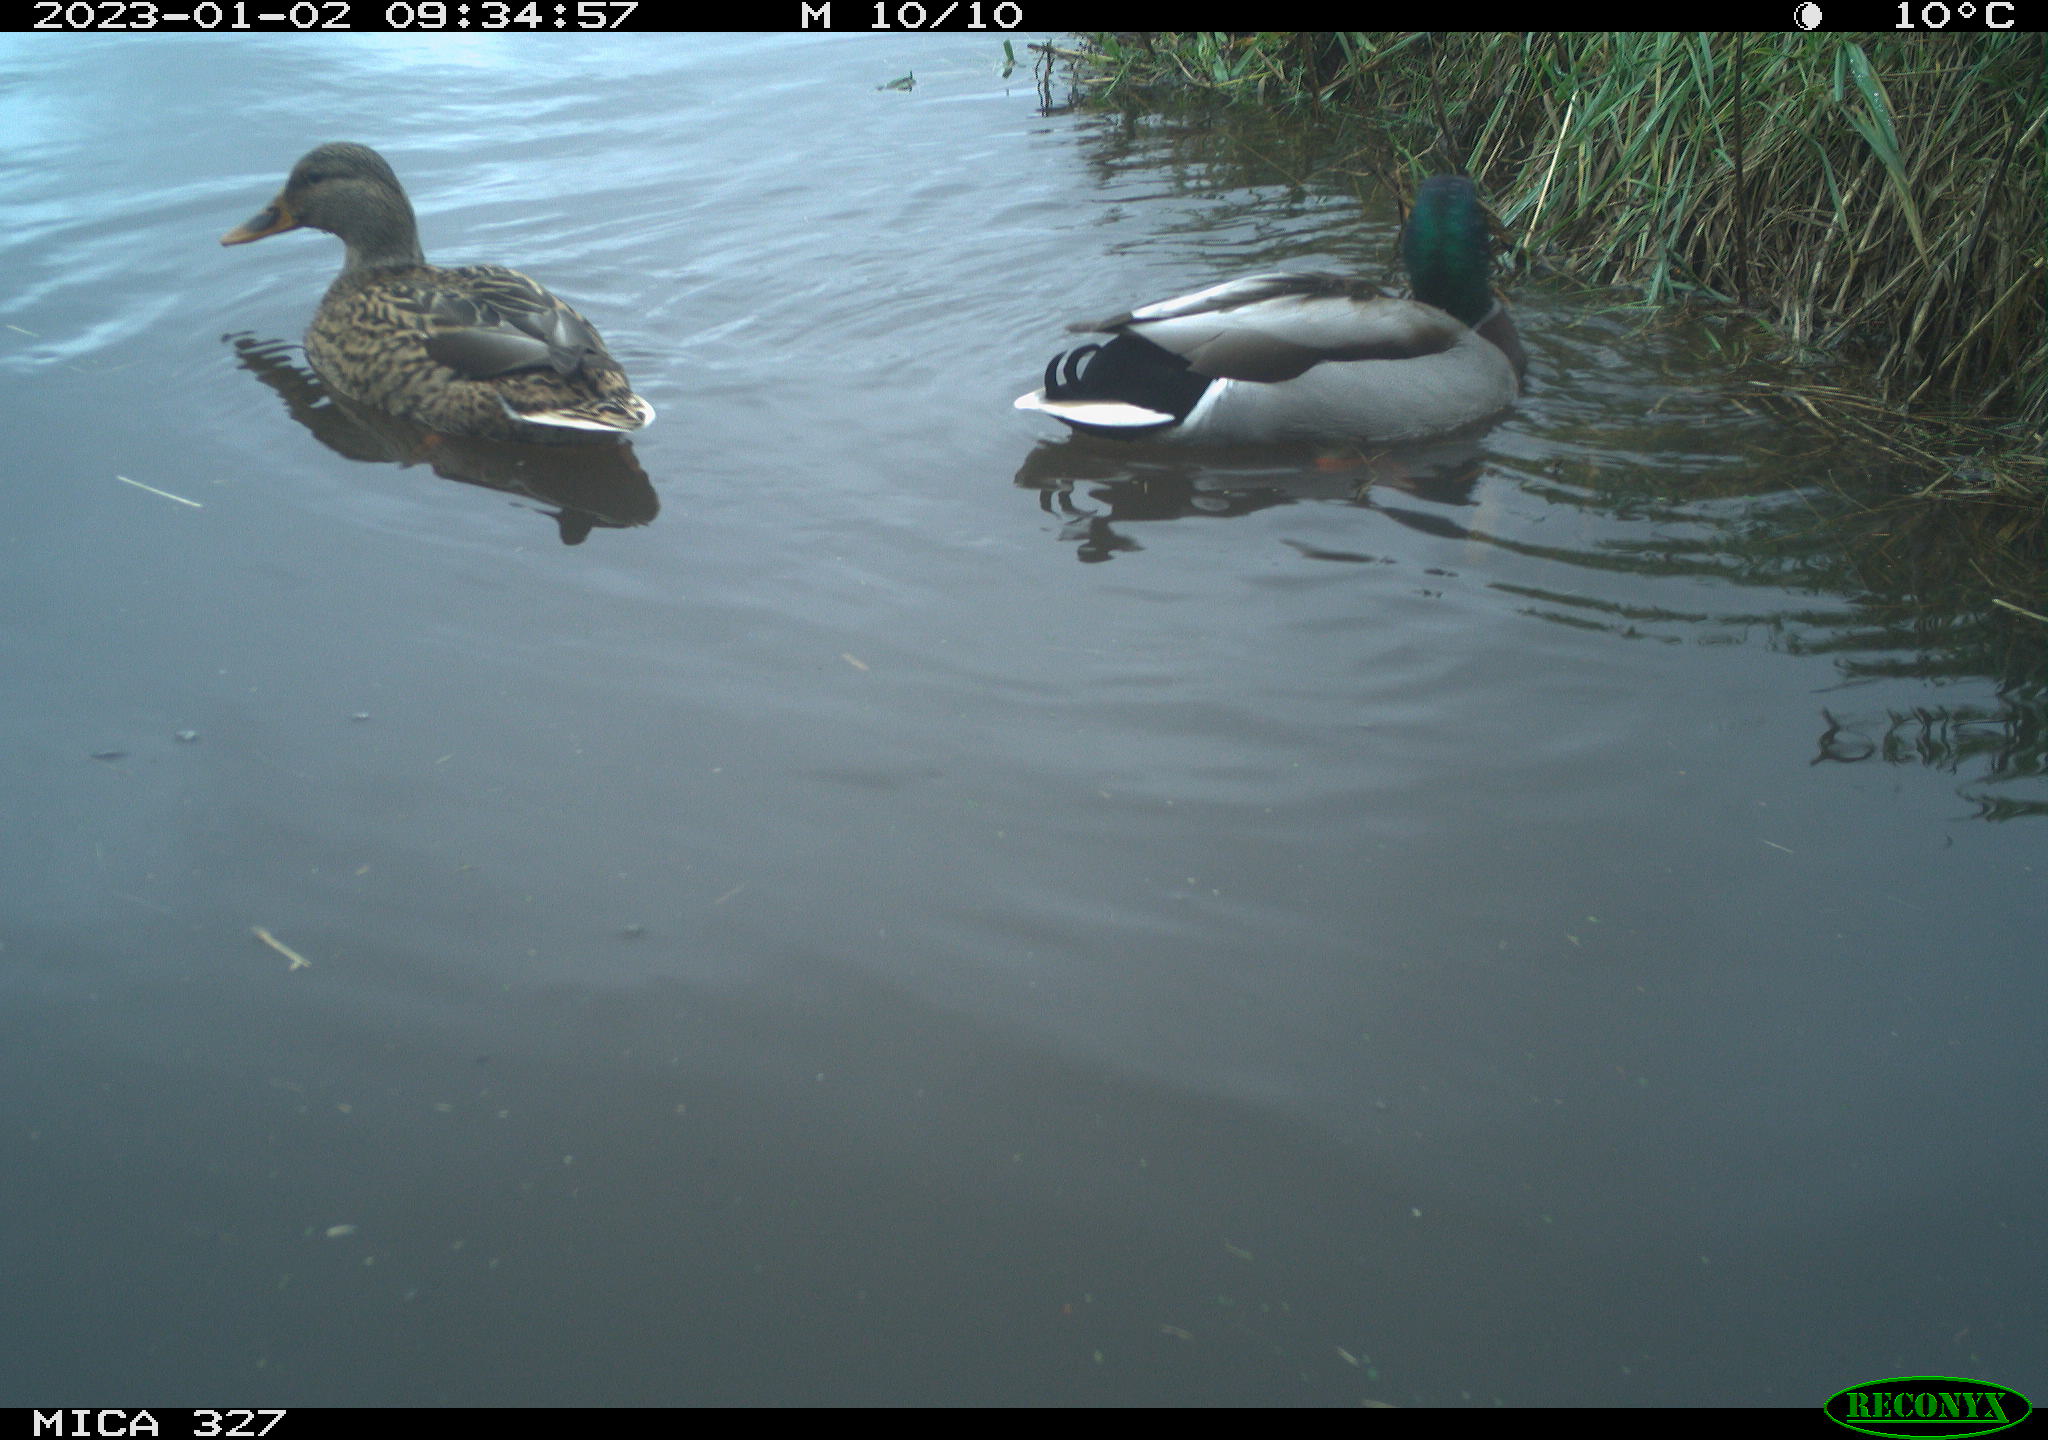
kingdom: Animalia
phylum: Chordata
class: Aves
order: Anseriformes
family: Anatidae
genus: Anas
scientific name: Anas
